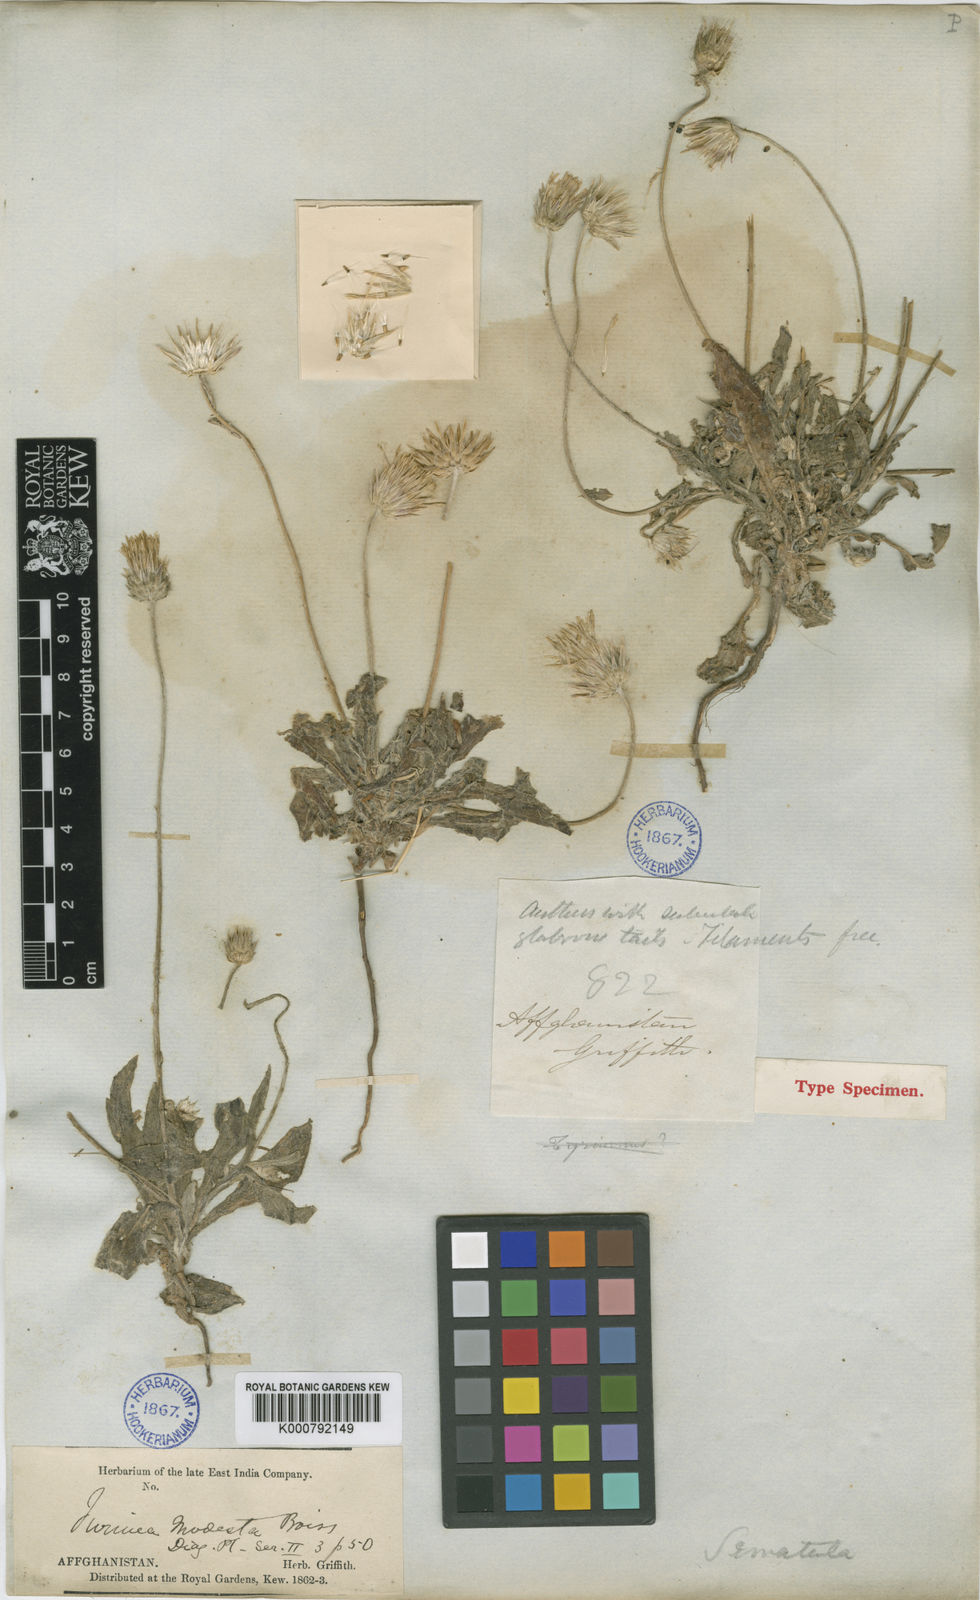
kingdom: Plantae
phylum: Tracheophyta
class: Magnoliopsida
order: Asterales
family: Asteraceae
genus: Jurinea
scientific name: Jurinea
